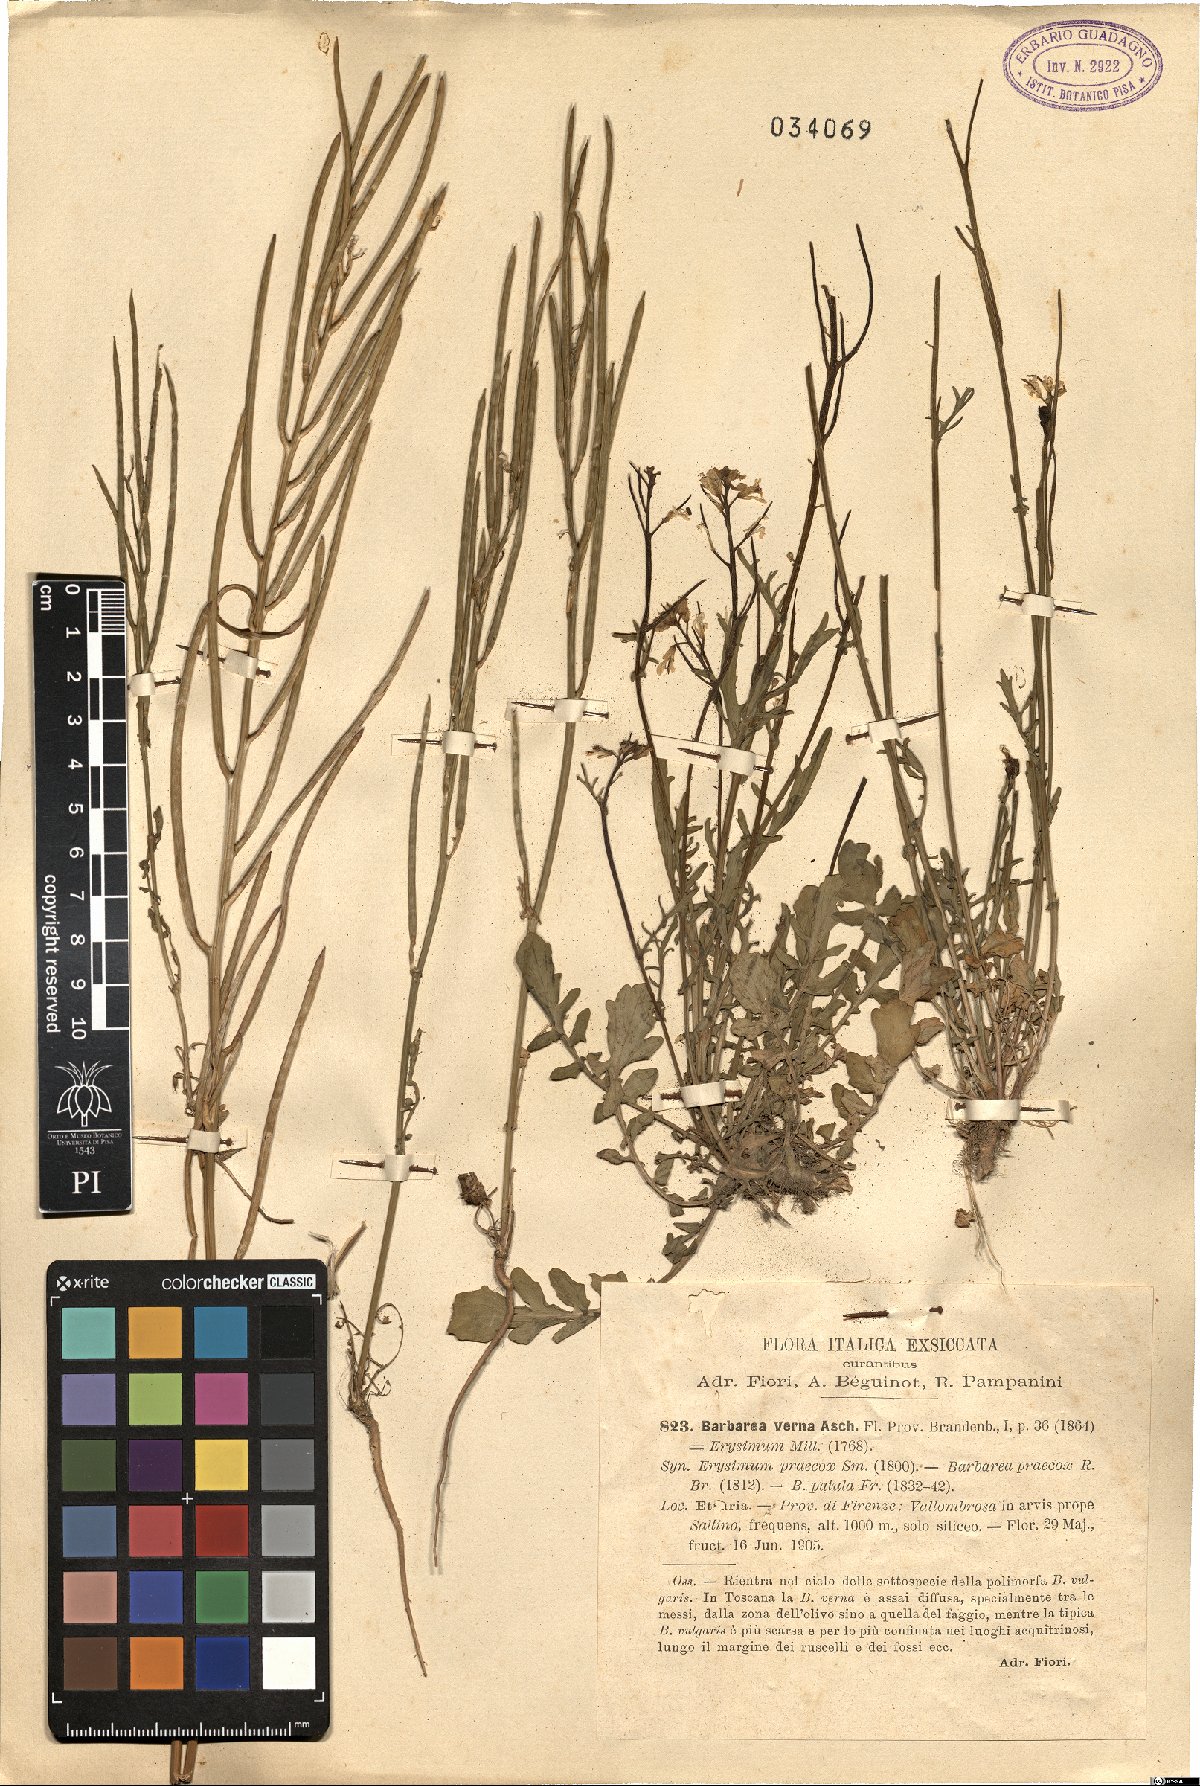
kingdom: Plantae
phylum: Tracheophyta
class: Magnoliopsida
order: Brassicales
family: Brassicaceae
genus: Barbarea
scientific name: Barbarea verna
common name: American cress
